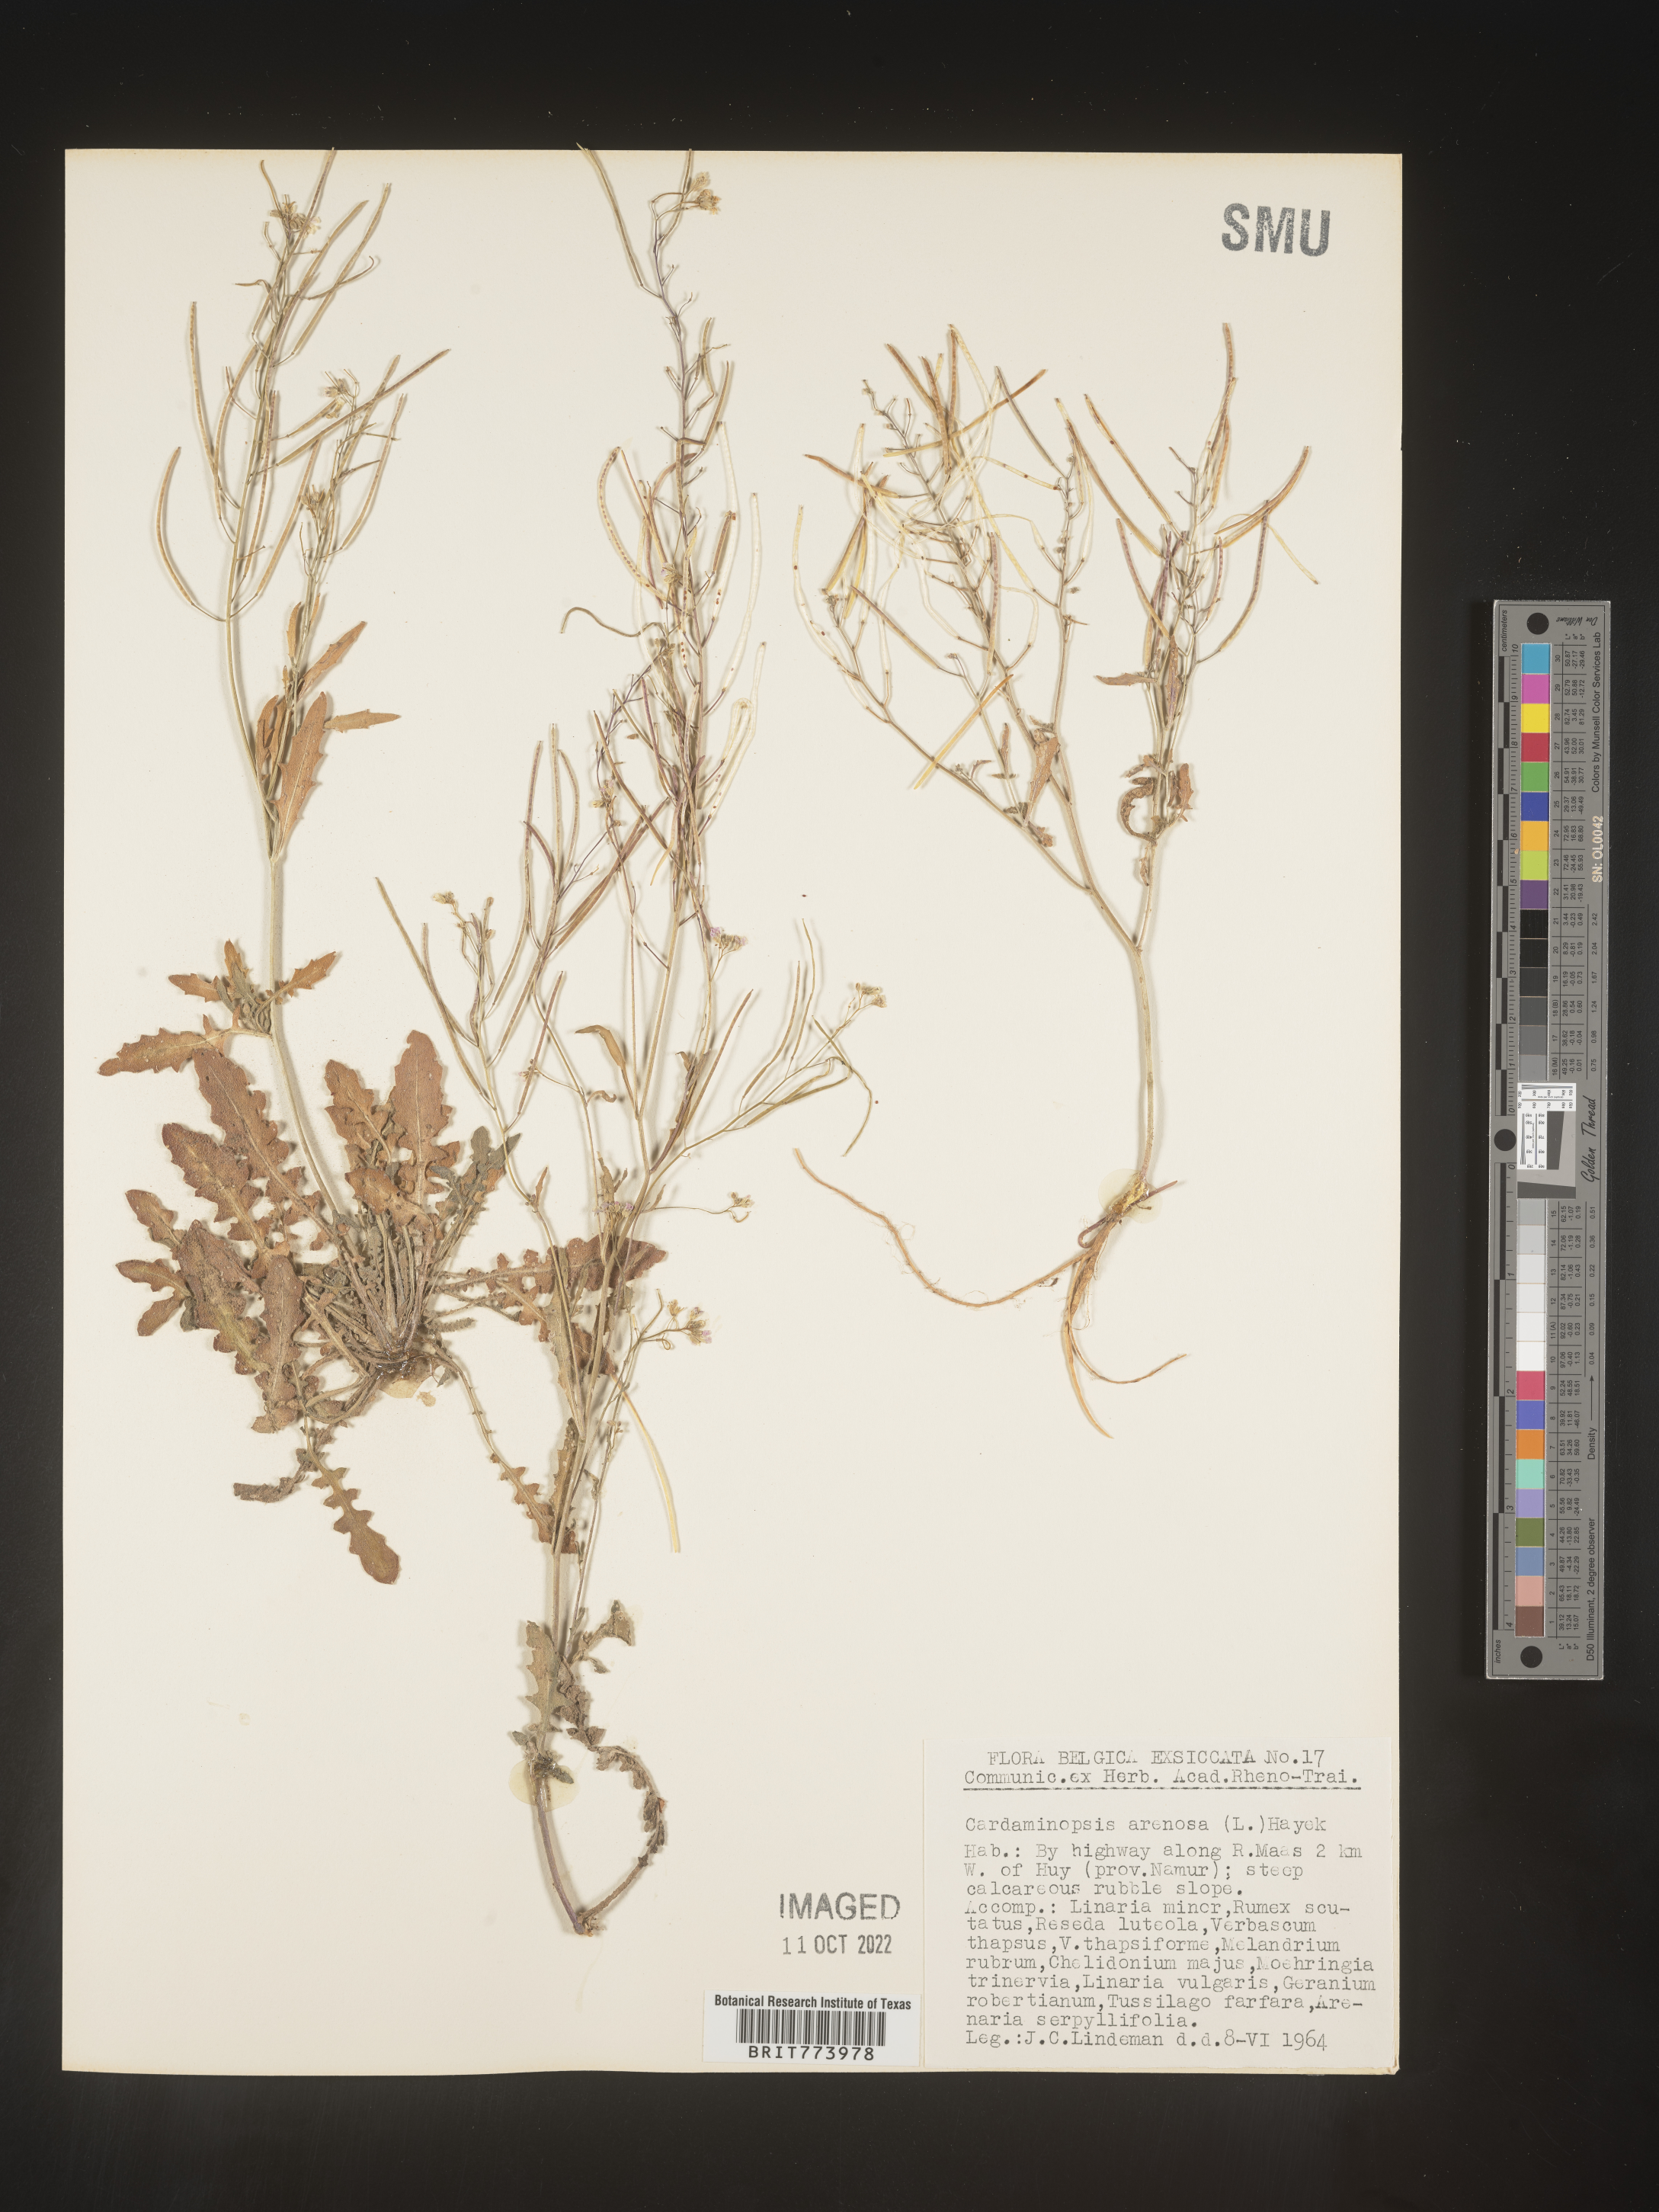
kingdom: Plantae
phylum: Tracheophyta
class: Magnoliopsida
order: Brassicales
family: Brassicaceae
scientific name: Brassicaceae
